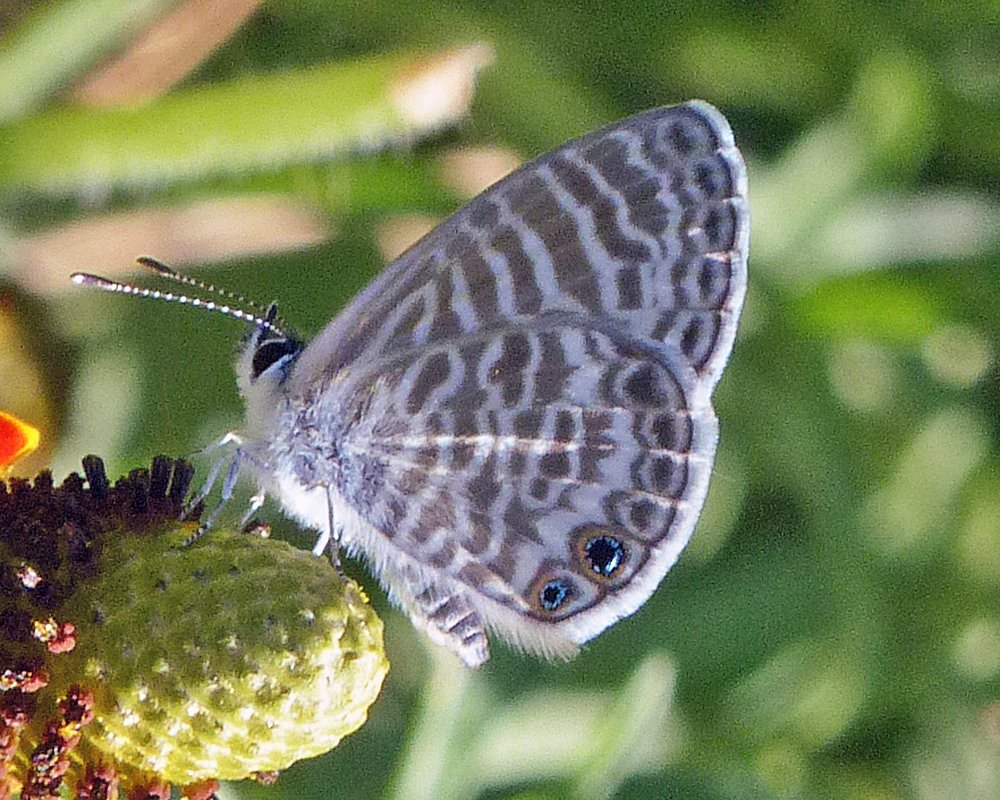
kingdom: Animalia
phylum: Arthropoda
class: Insecta
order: Lepidoptera
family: Lycaenidae
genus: Leptotes
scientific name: Leptotes marina
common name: Marine Blue
